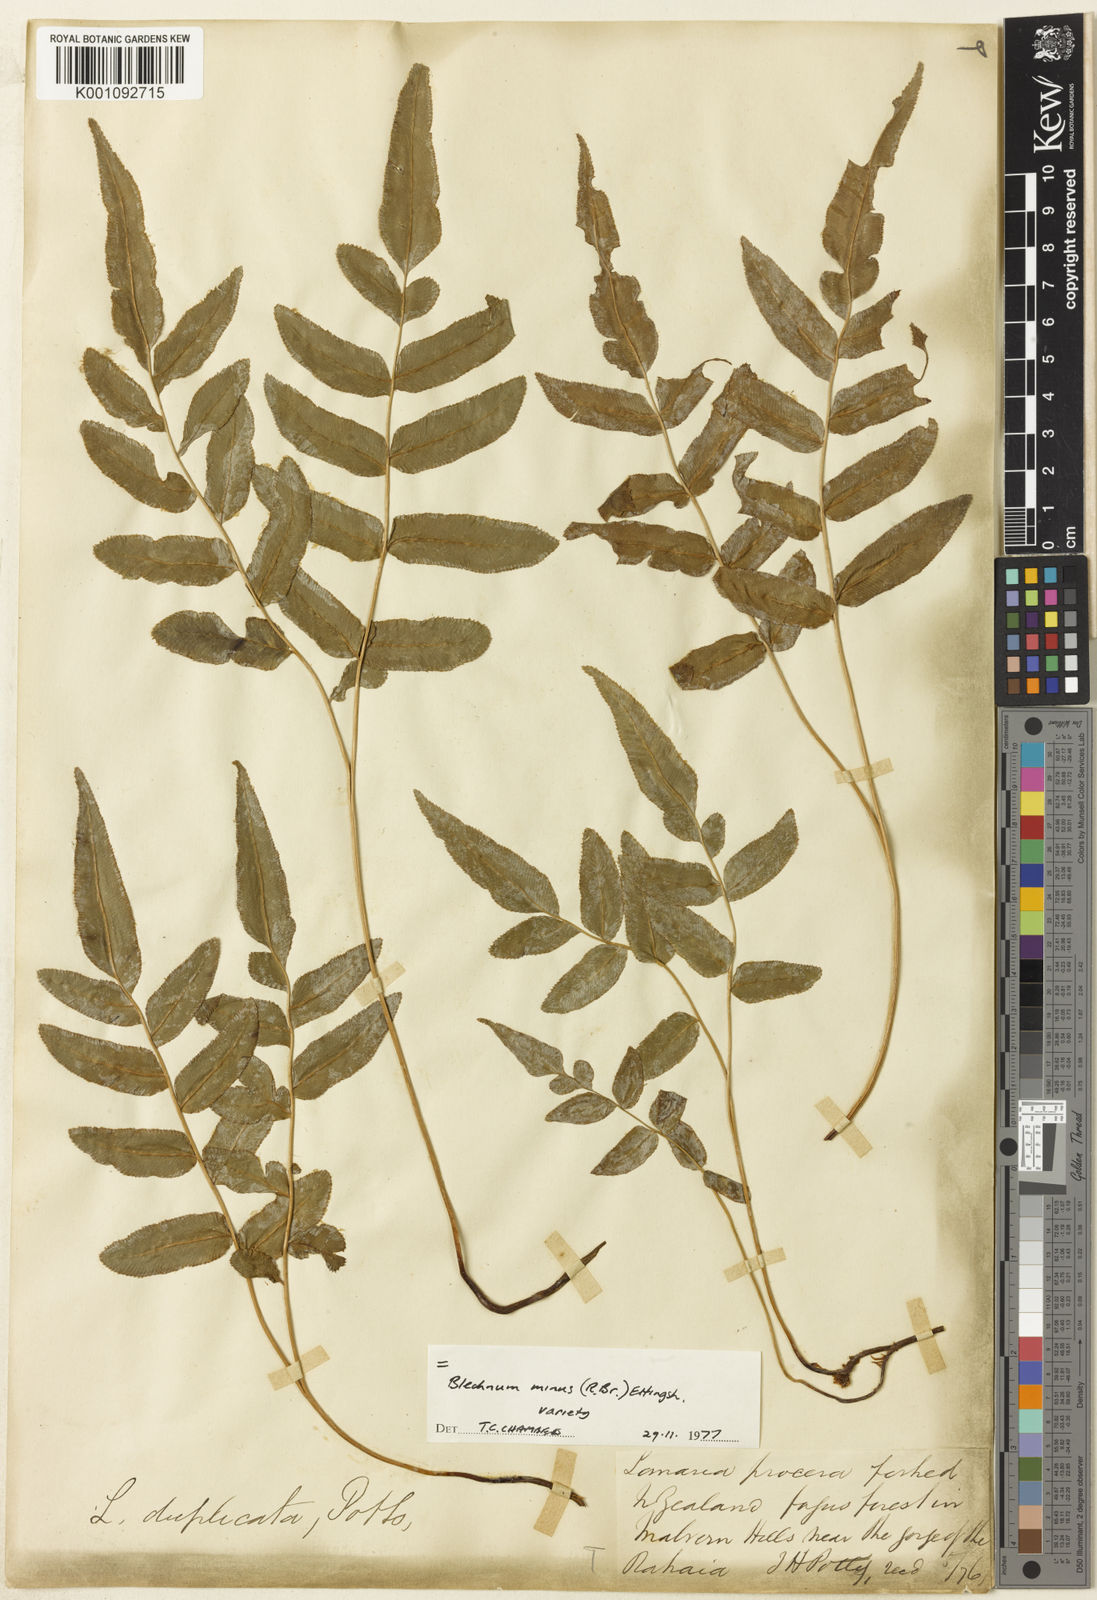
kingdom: Plantae
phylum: Tracheophyta
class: Polypodiopsida
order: Polypodiales
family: Blechnaceae
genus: Parablechnum
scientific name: Parablechnum minus
